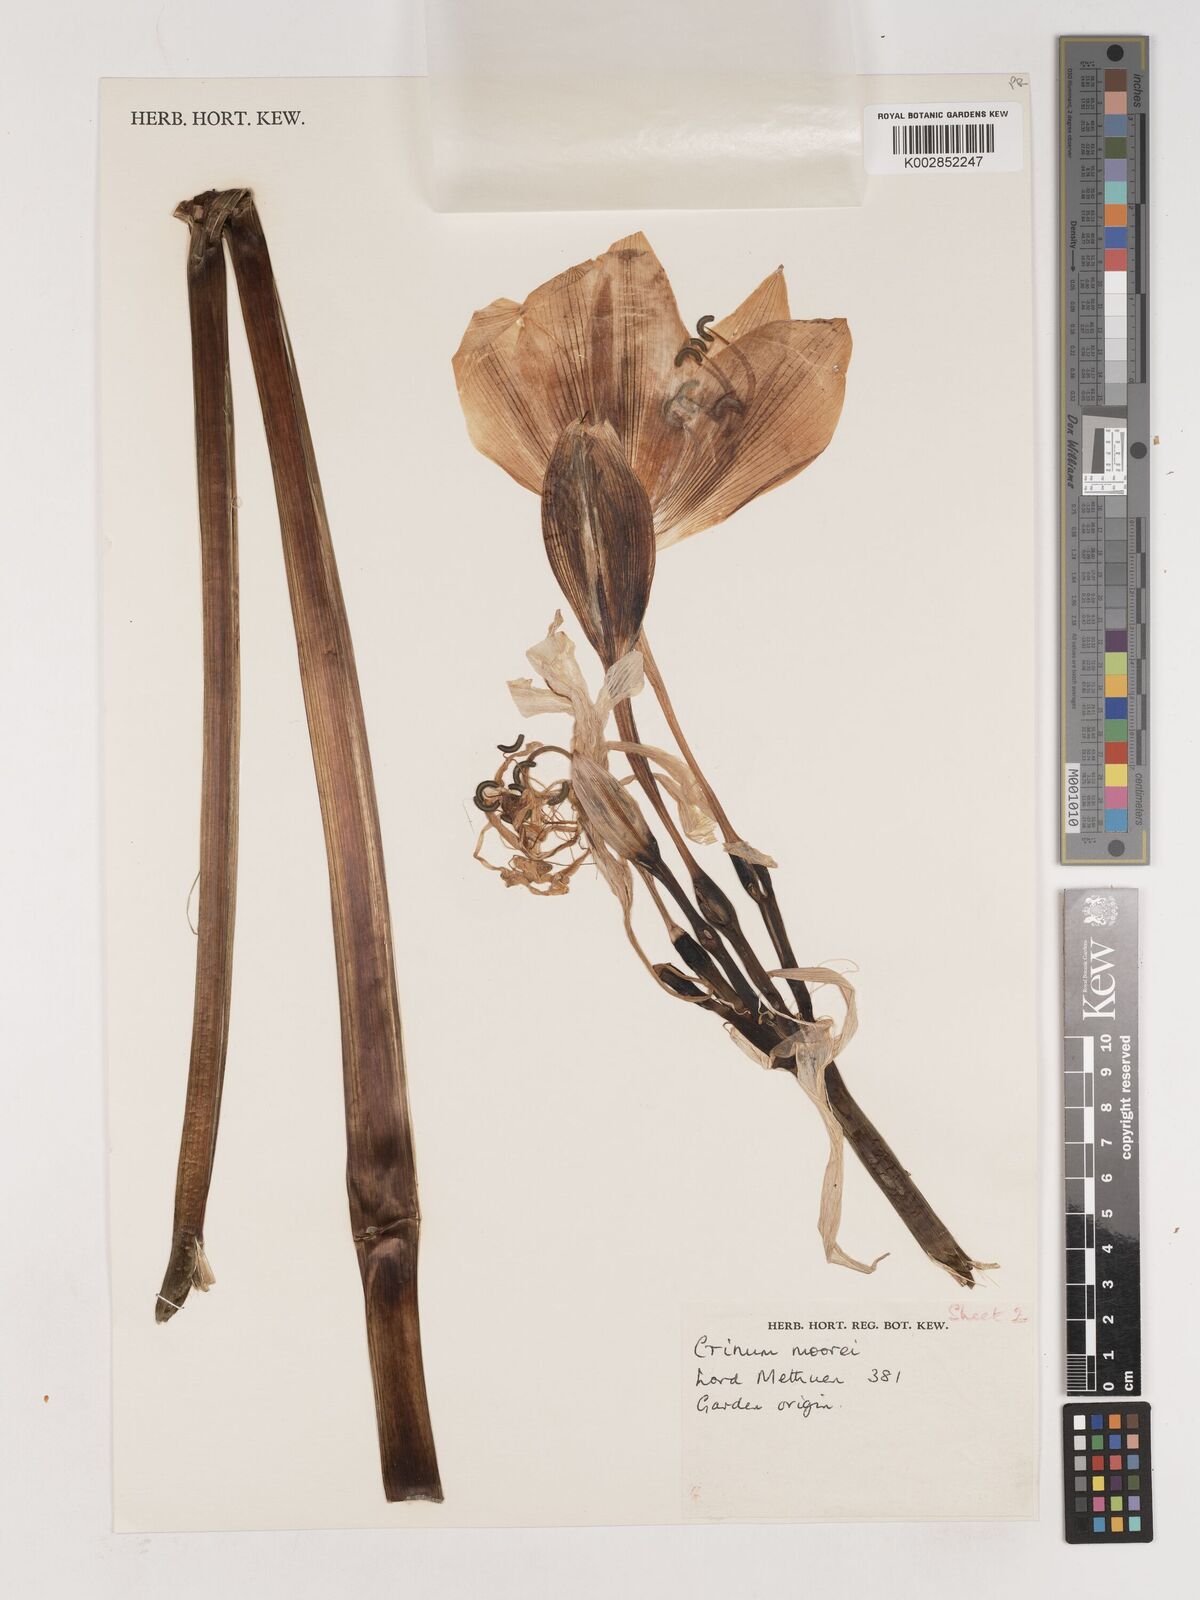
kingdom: Plantae
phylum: Tracheophyta
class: Liliopsida
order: Asparagales
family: Amaryllidaceae
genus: Crinum
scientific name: Crinum moorei
